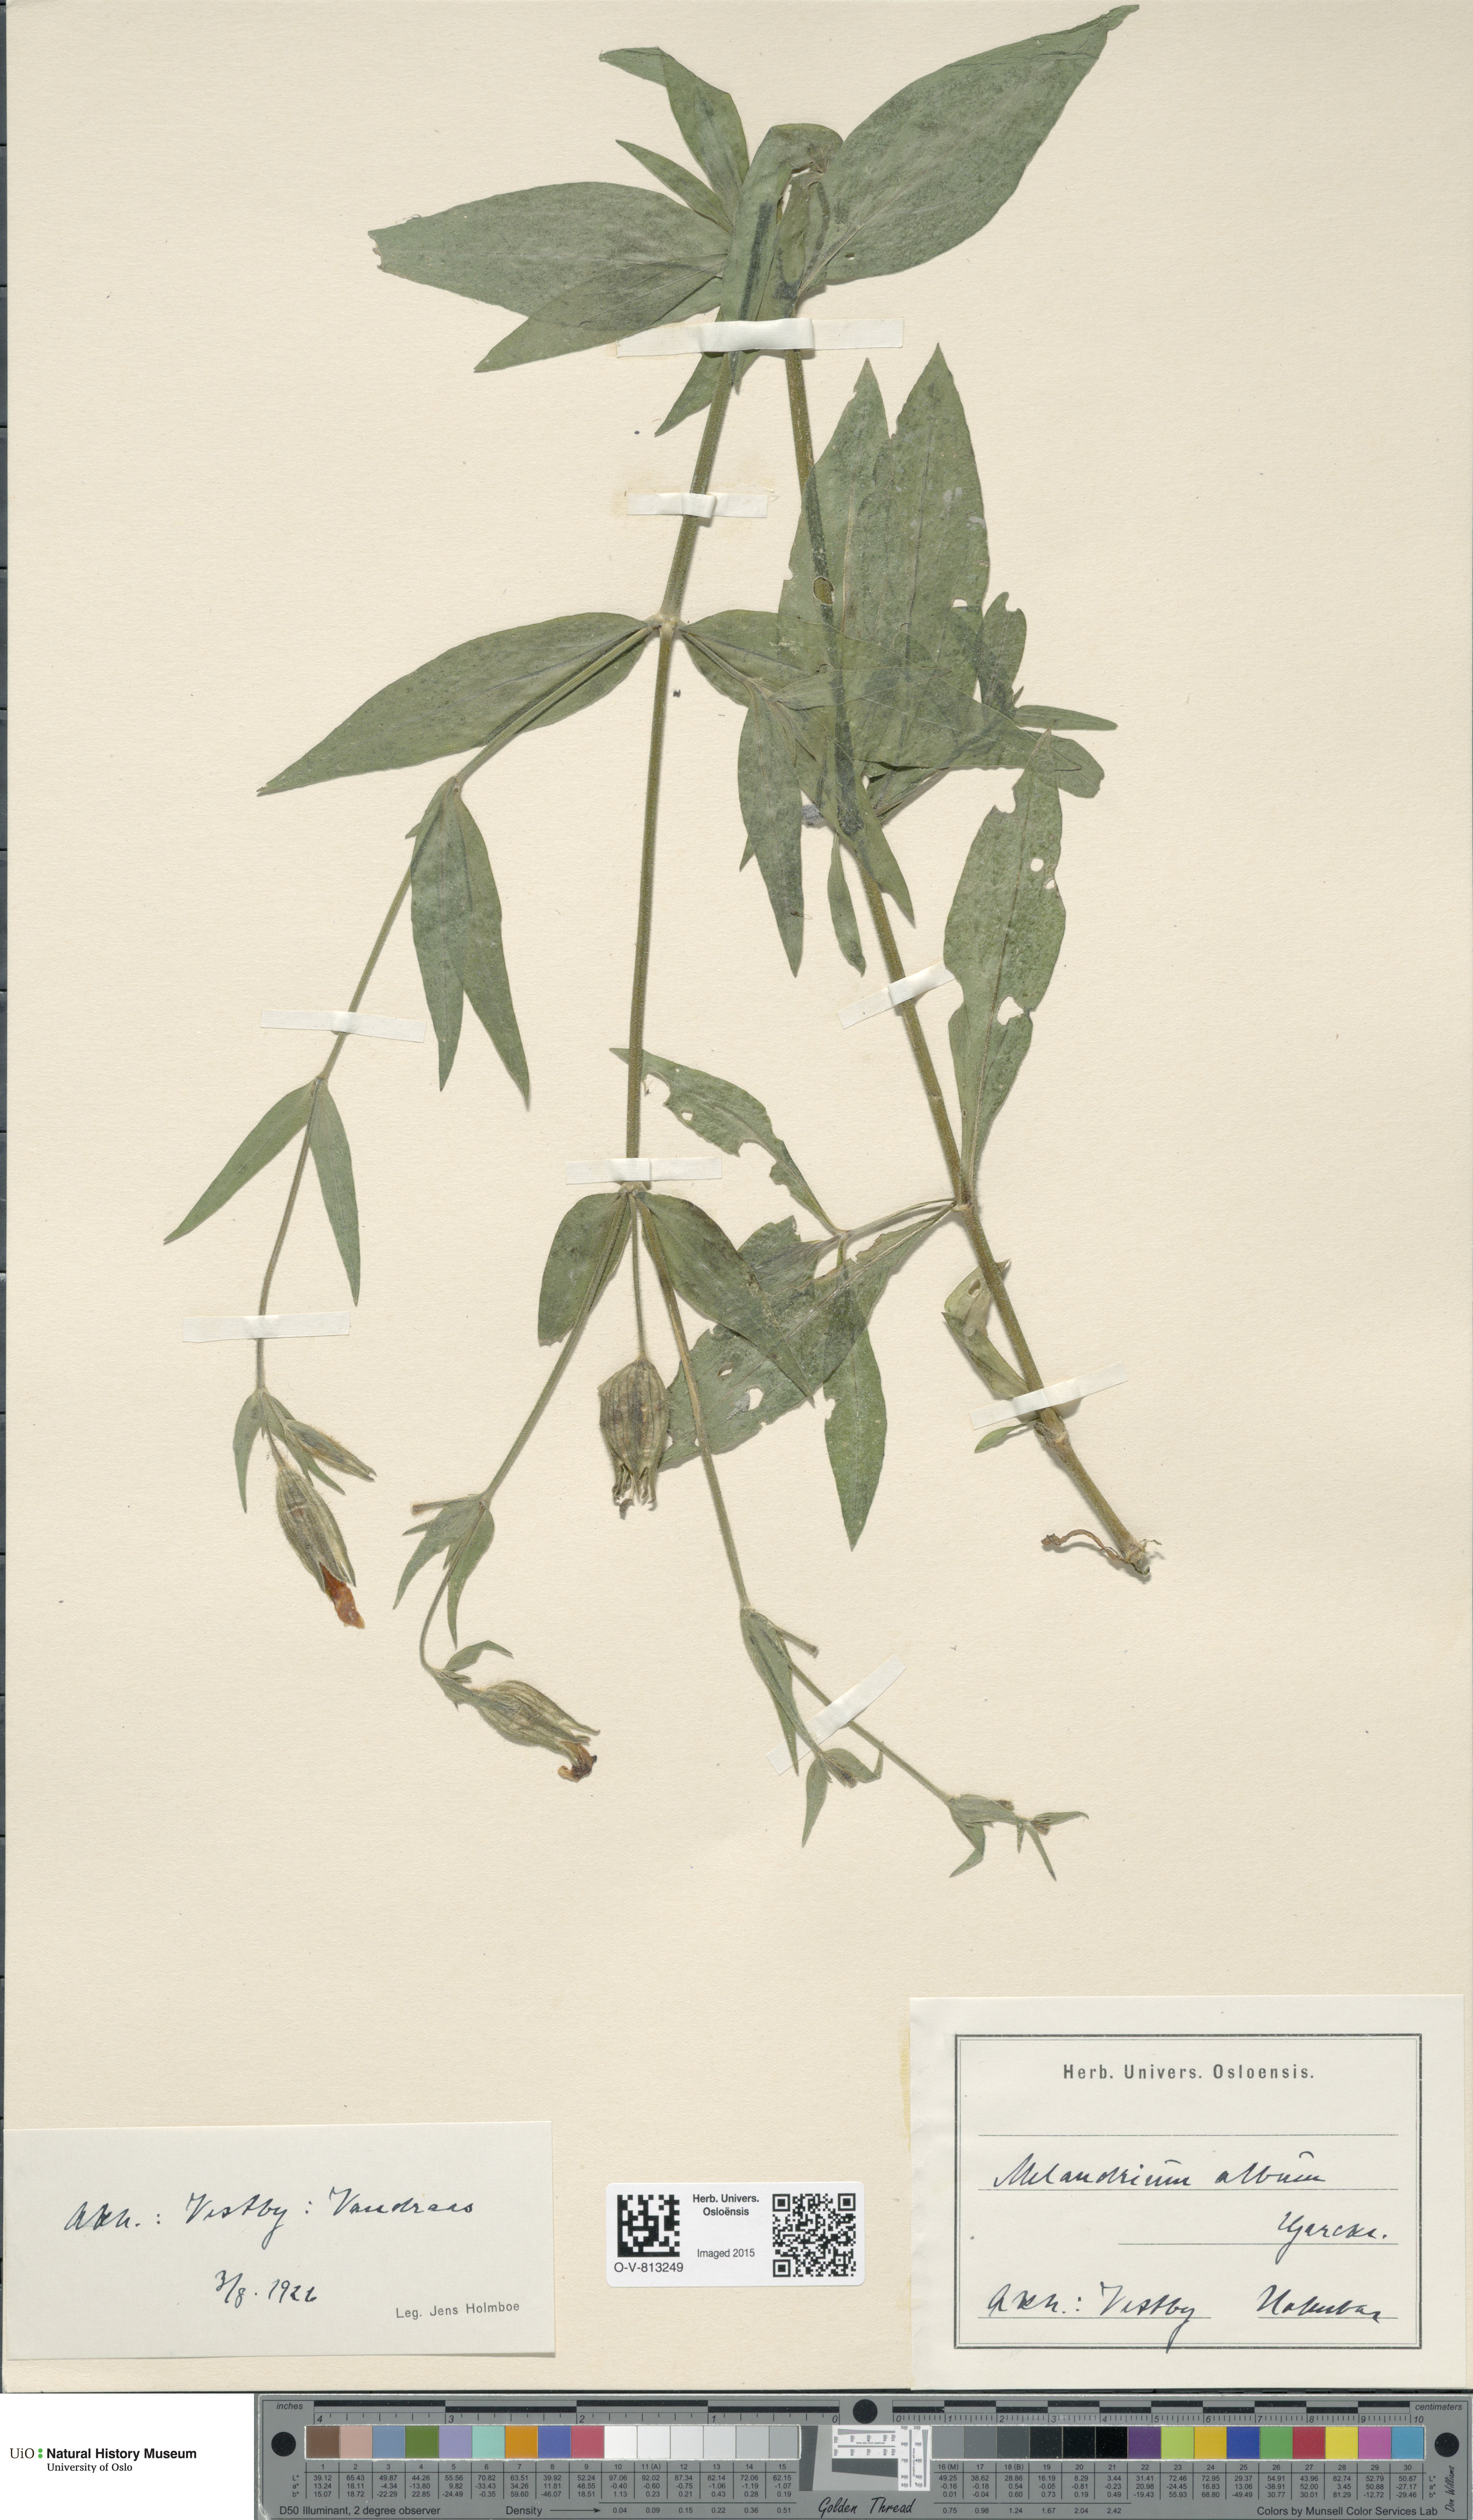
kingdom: Plantae
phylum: Tracheophyta
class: Magnoliopsida
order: Caryophyllales
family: Caryophyllaceae
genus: Silene
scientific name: Silene latifolia
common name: White campion
